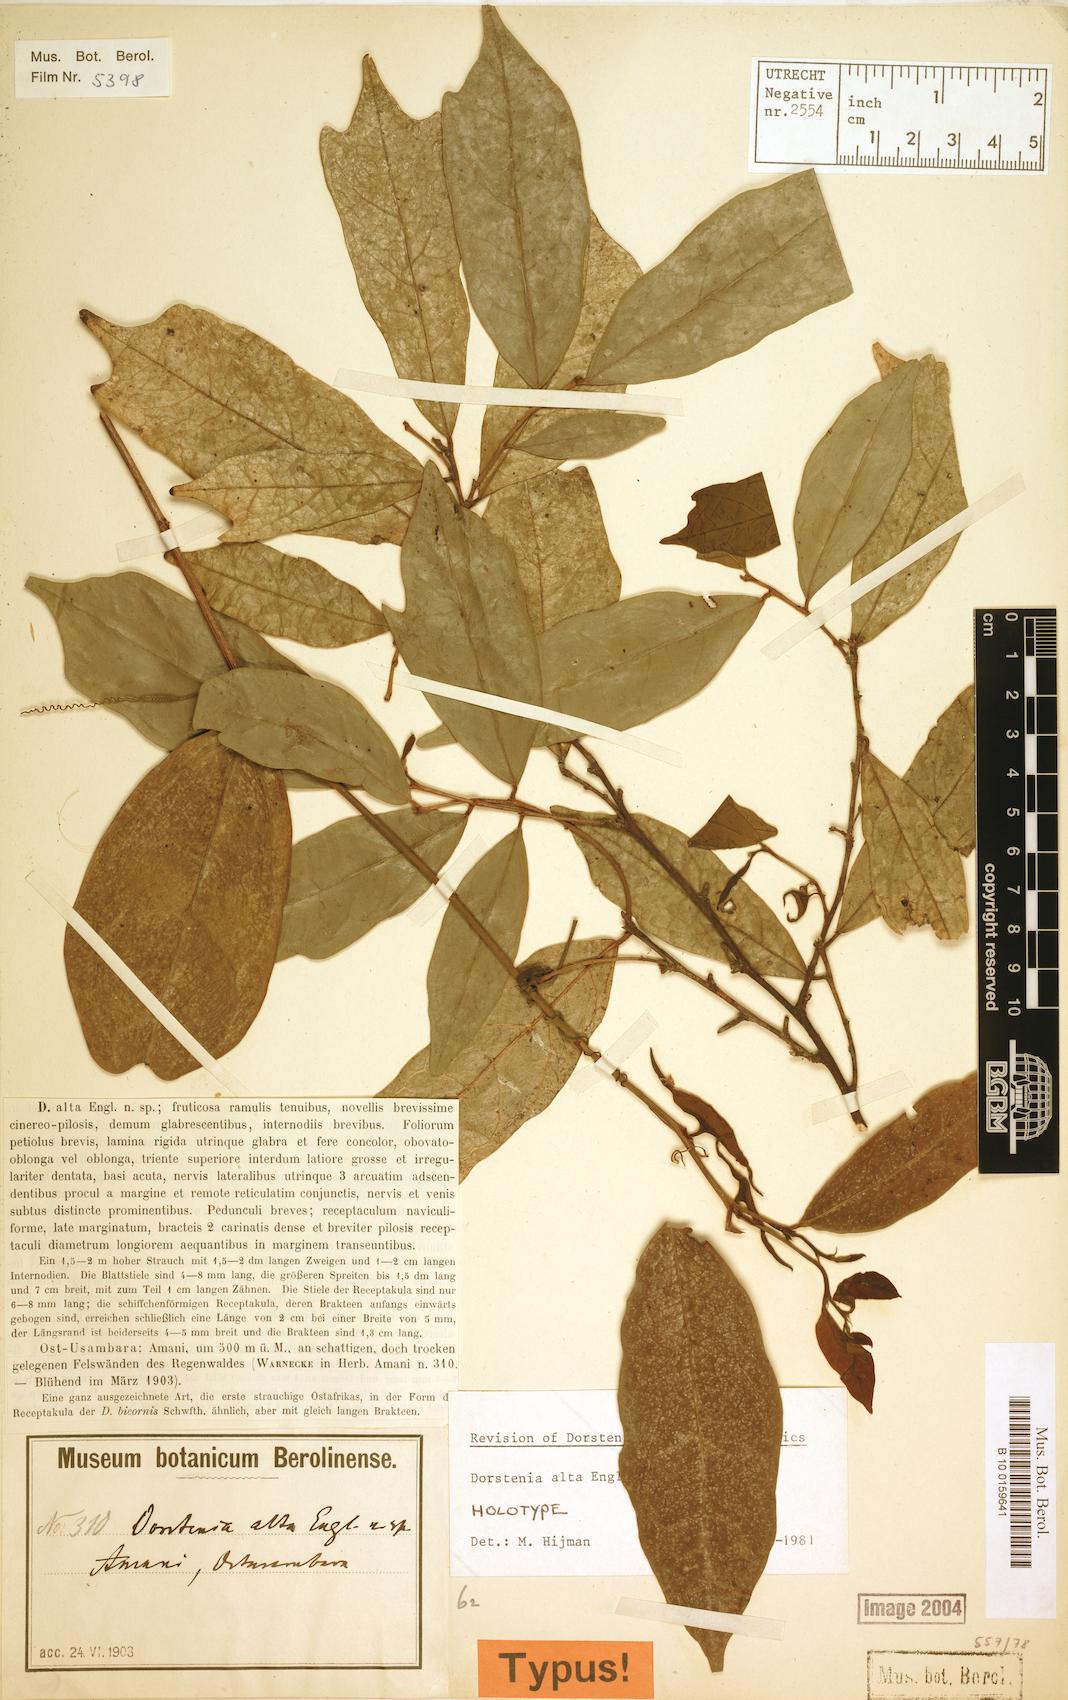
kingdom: Plantae
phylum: Tracheophyta
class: Magnoliopsida
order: Rosales
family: Moraceae
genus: Hijmania
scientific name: Hijmania alta
